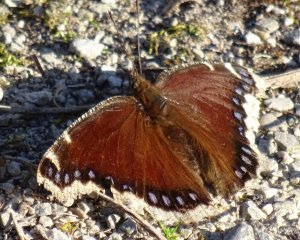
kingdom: Animalia
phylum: Arthropoda
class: Insecta
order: Lepidoptera
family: Nymphalidae
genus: Nymphalis
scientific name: Nymphalis antiopa
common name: Mourning Cloak
